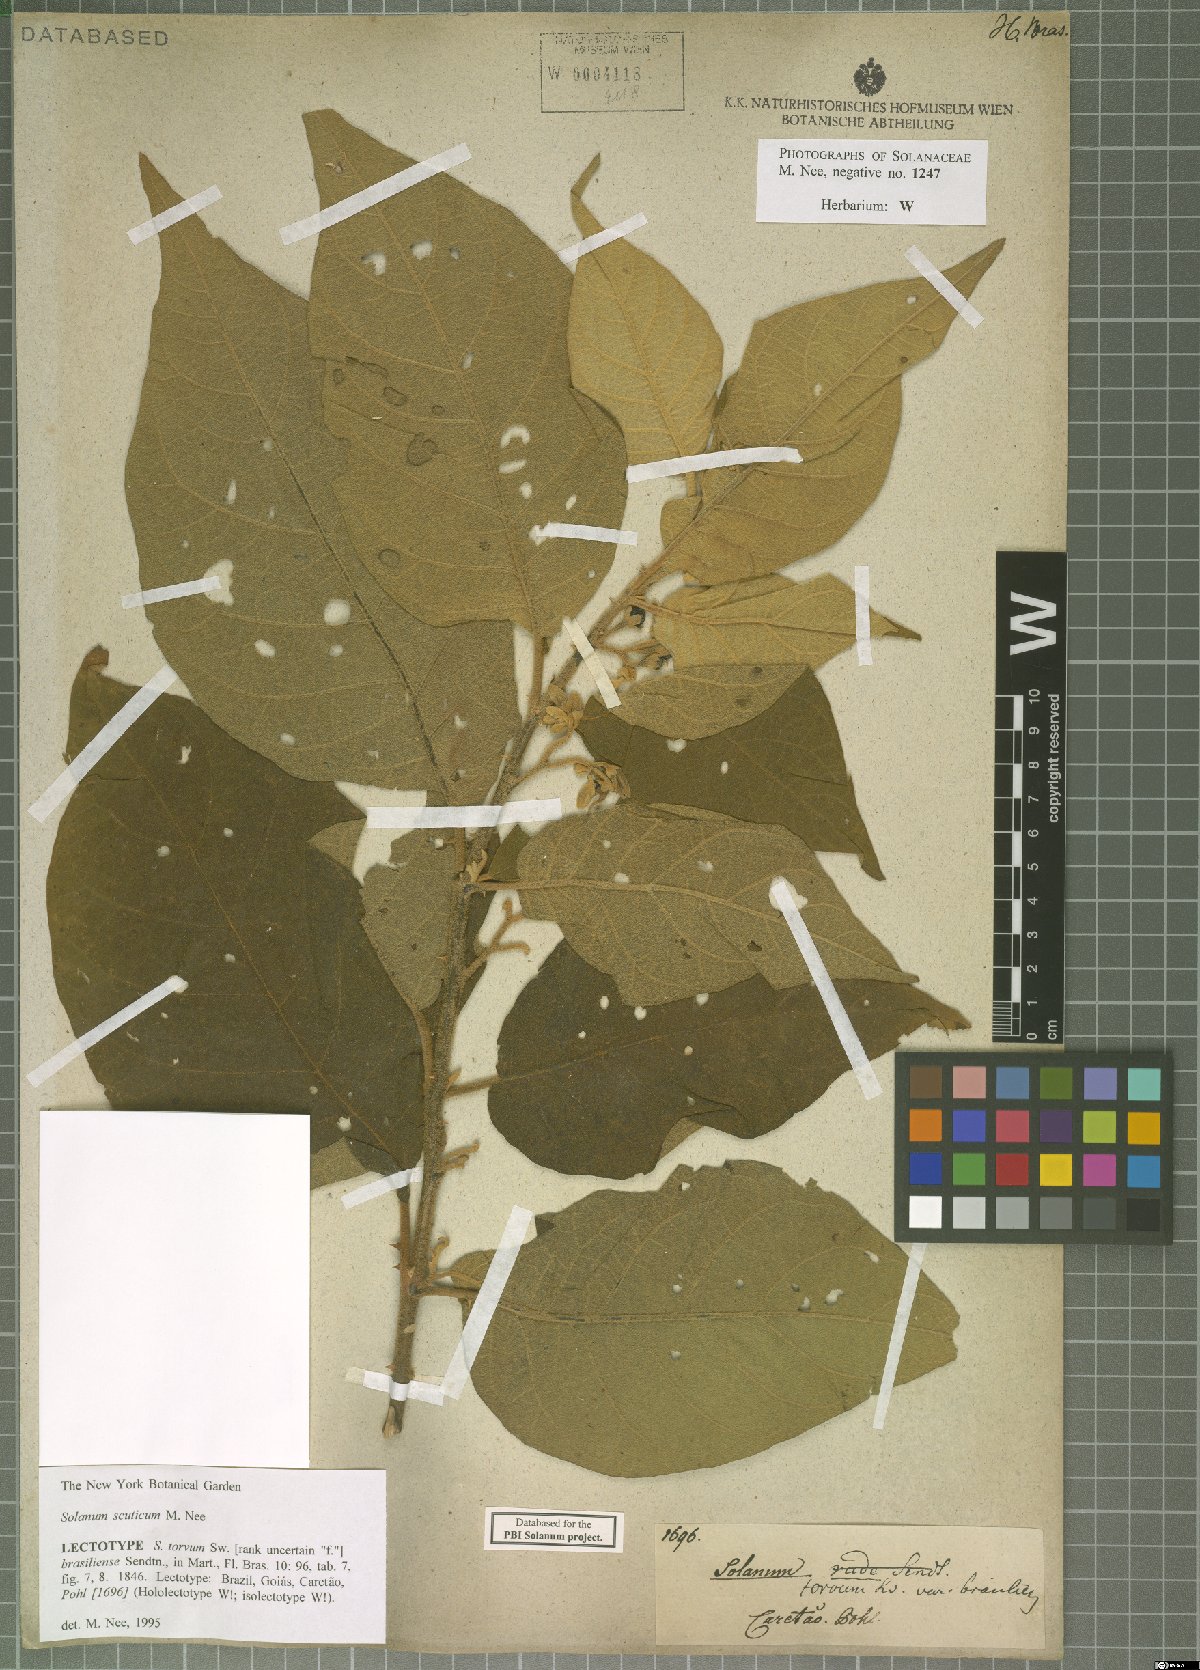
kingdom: Plantae
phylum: Tracheophyta
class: Magnoliopsida
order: Solanales
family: Solanaceae
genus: Solanum
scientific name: Solanum scuticum
